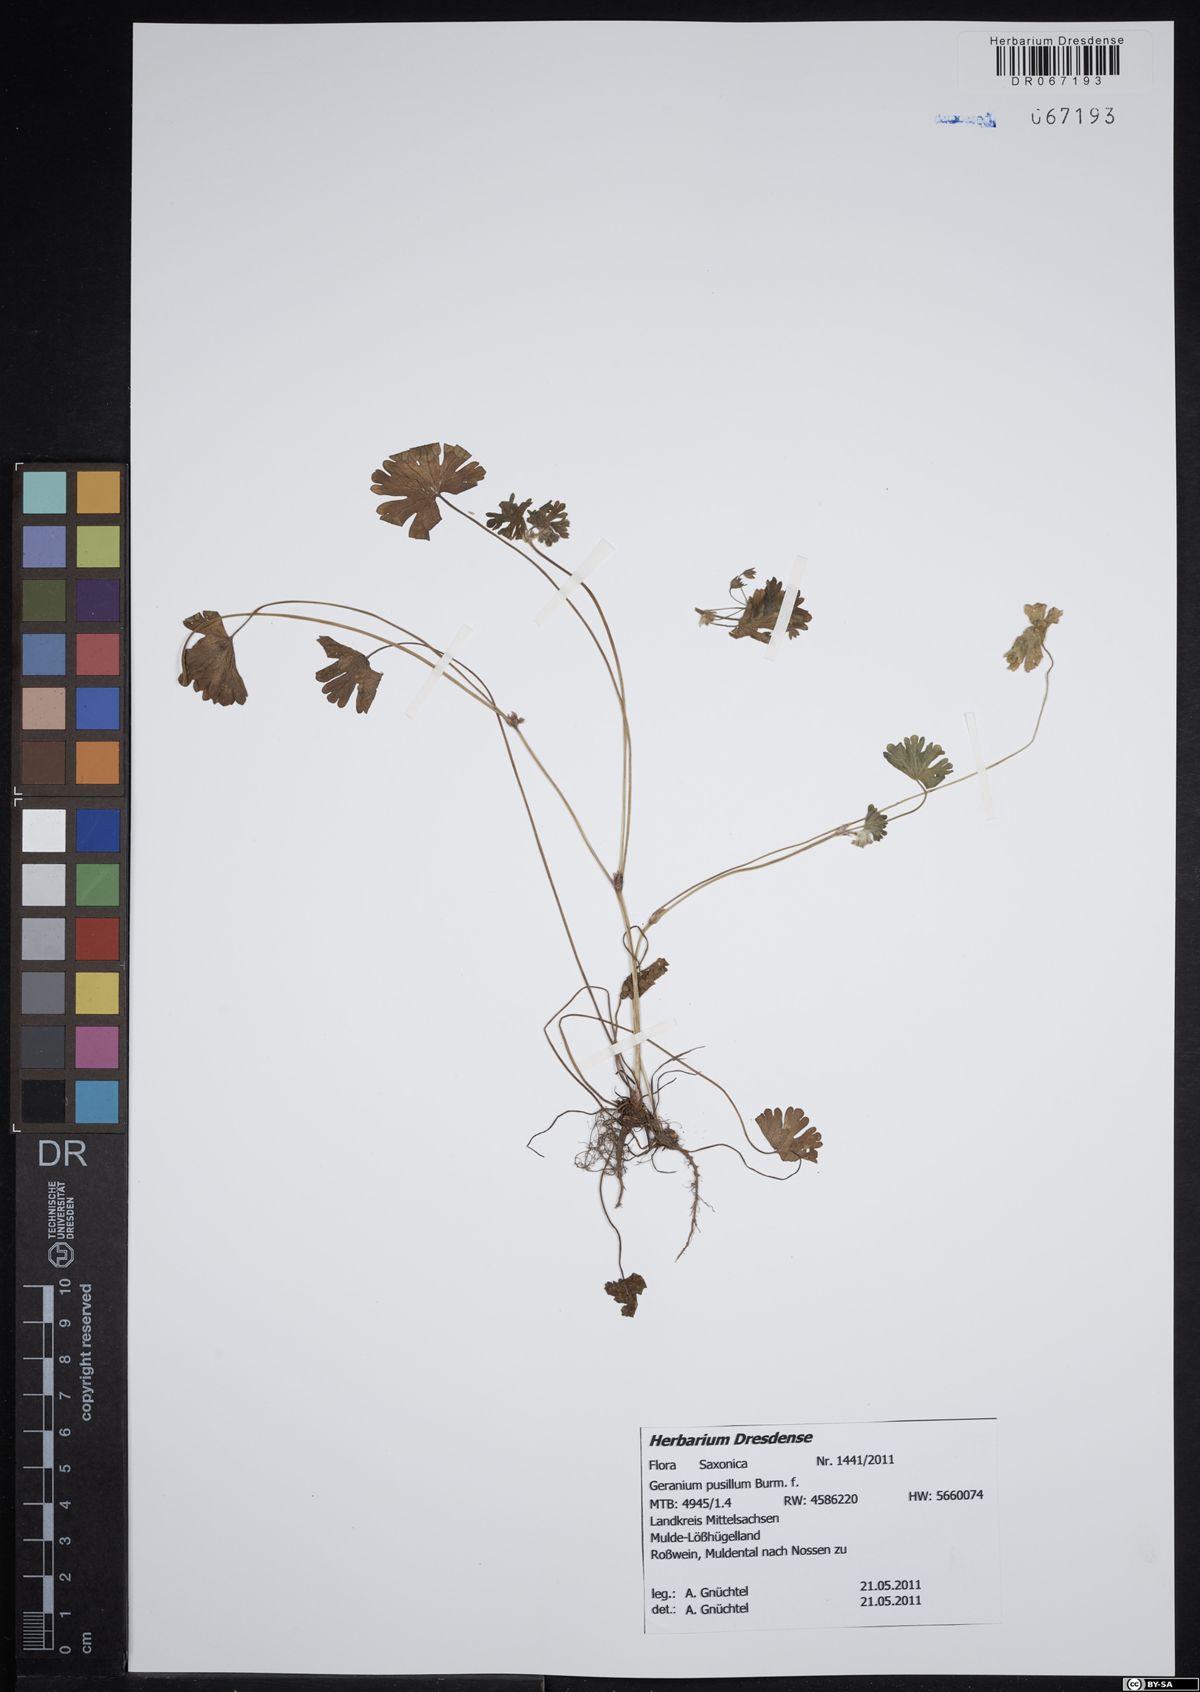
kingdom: Plantae
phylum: Tracheophyta
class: Magnoliopsida
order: Geraniales
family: Geraniaceae
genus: Geranium
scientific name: Geranium pusillum
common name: Small geranium
